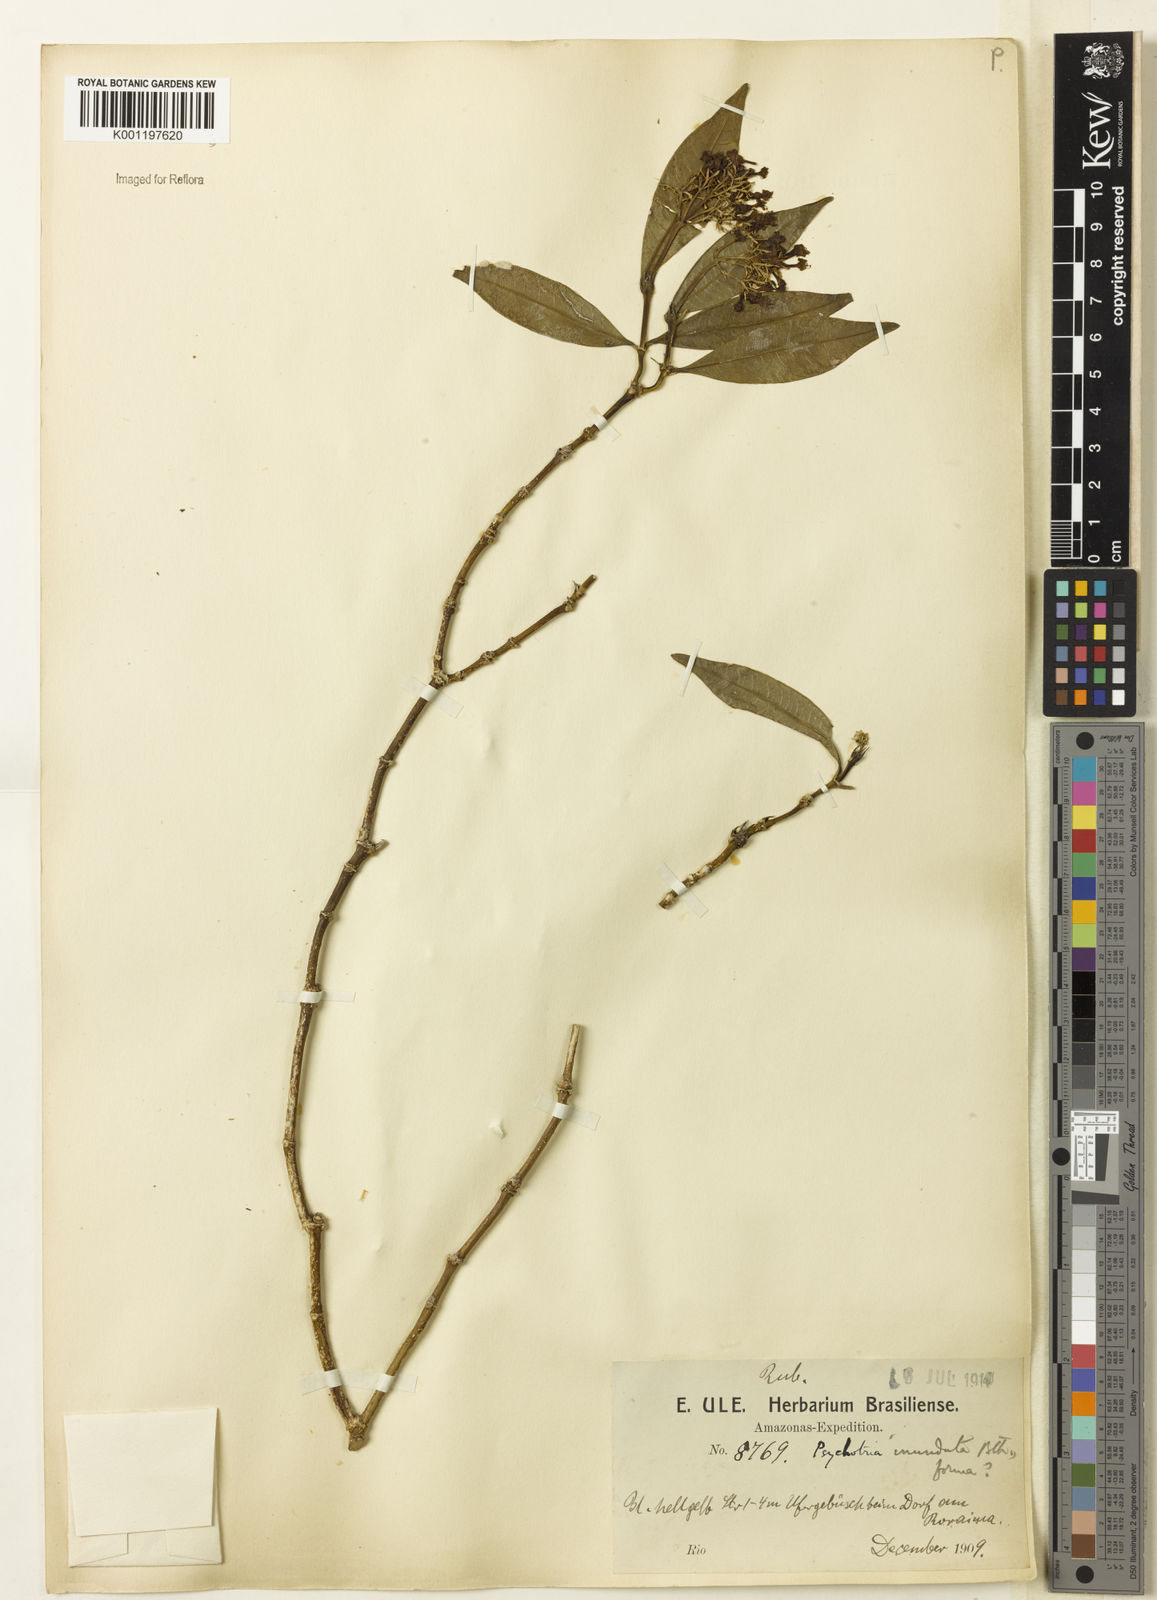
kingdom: Plantae
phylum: Tracheophyta
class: Magnoliopsida
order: Gentianales
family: Rubiaceae
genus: Palicourea
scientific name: Palicourea violacea
